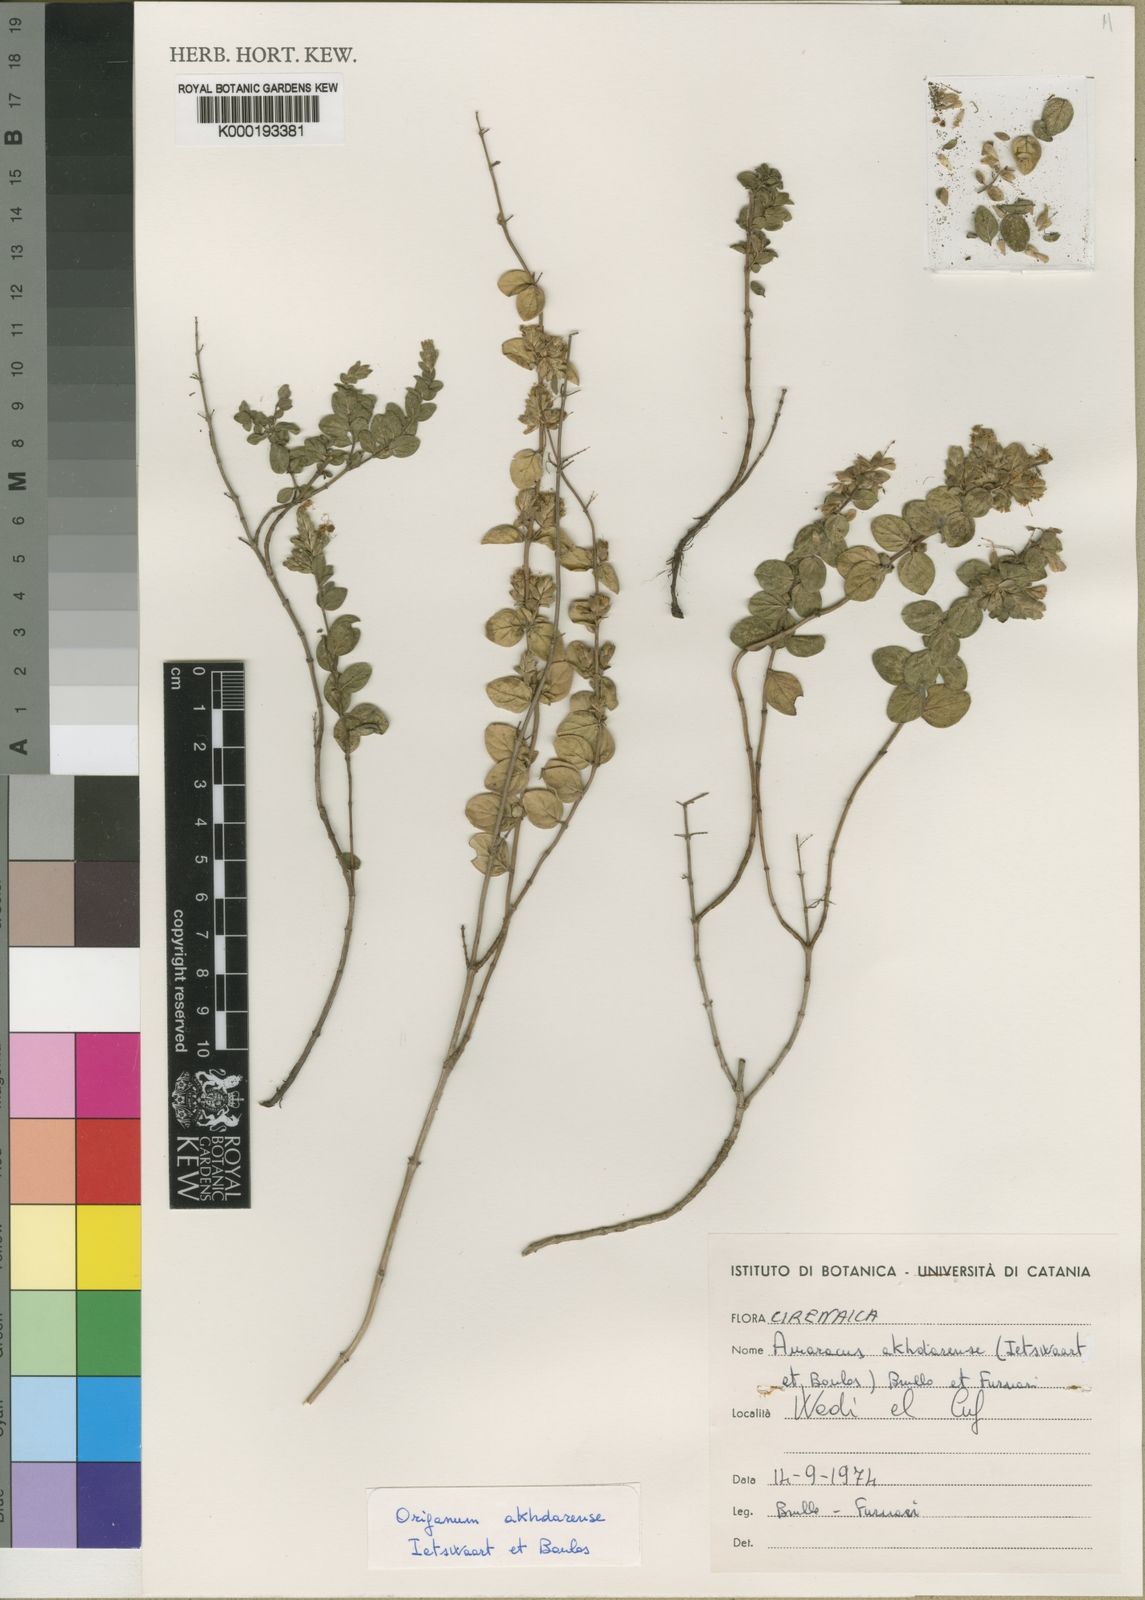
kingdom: Plantae
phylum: Tracheophyta
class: Magnoliopsida
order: Lamiales
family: Lamiaceae
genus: Origanum
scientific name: Origanum akhdarense
